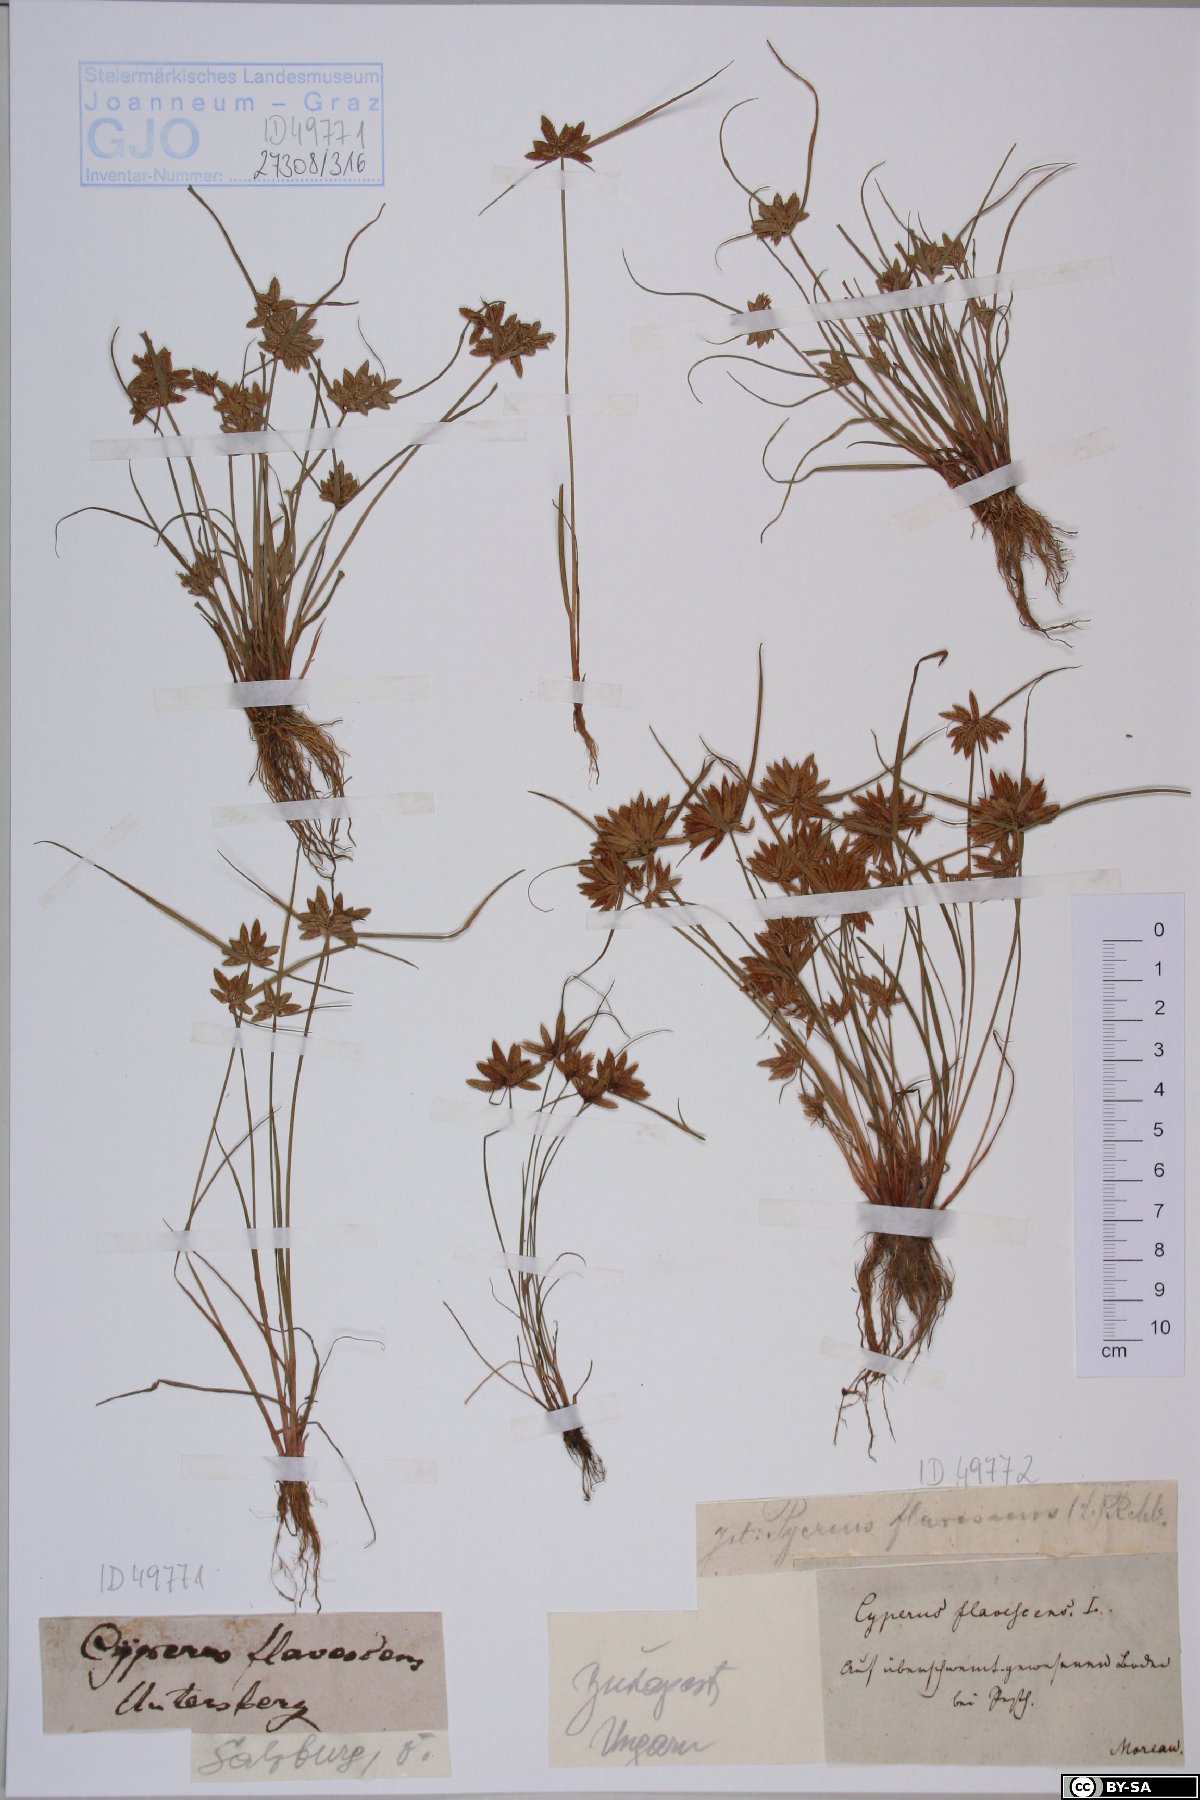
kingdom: Plantae
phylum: Tracheophyta
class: Liliopsida
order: Poales
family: Cyperaceae
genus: Cyperus
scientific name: Cyperus flavescens
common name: Yellow galingale
